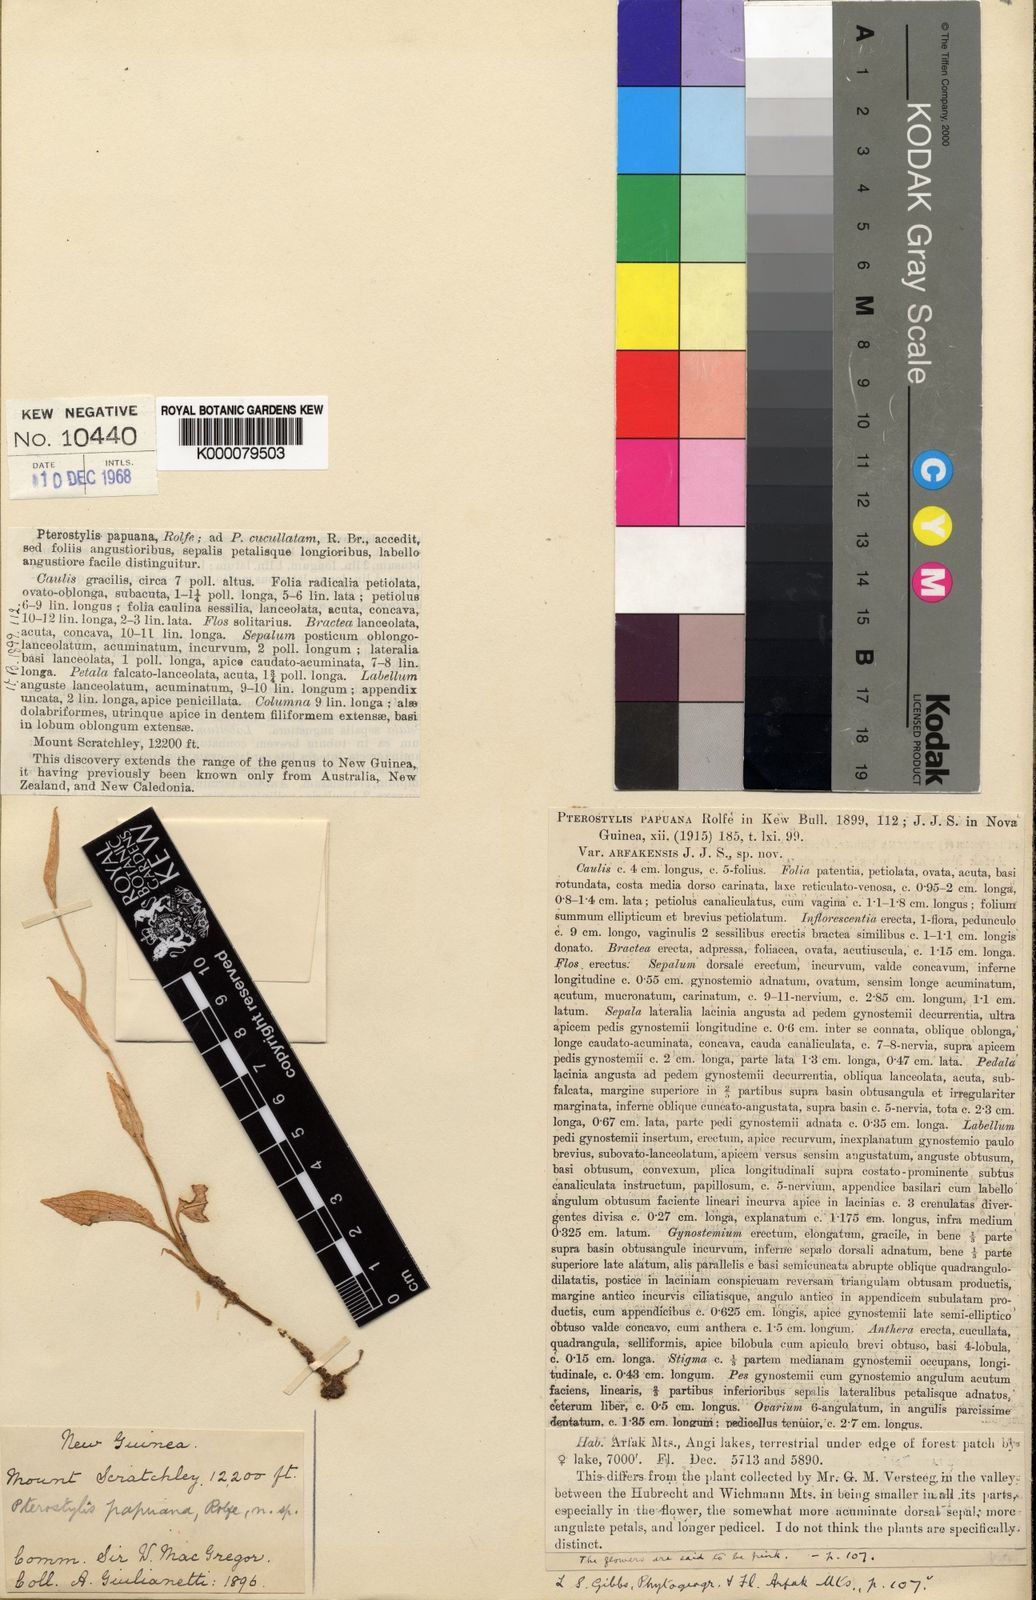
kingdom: Plantae
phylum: Tracheophyta
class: Liliopsida
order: Asparagales
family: Orchidaceae
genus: Pterostylis
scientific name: Pterostylis papuana
